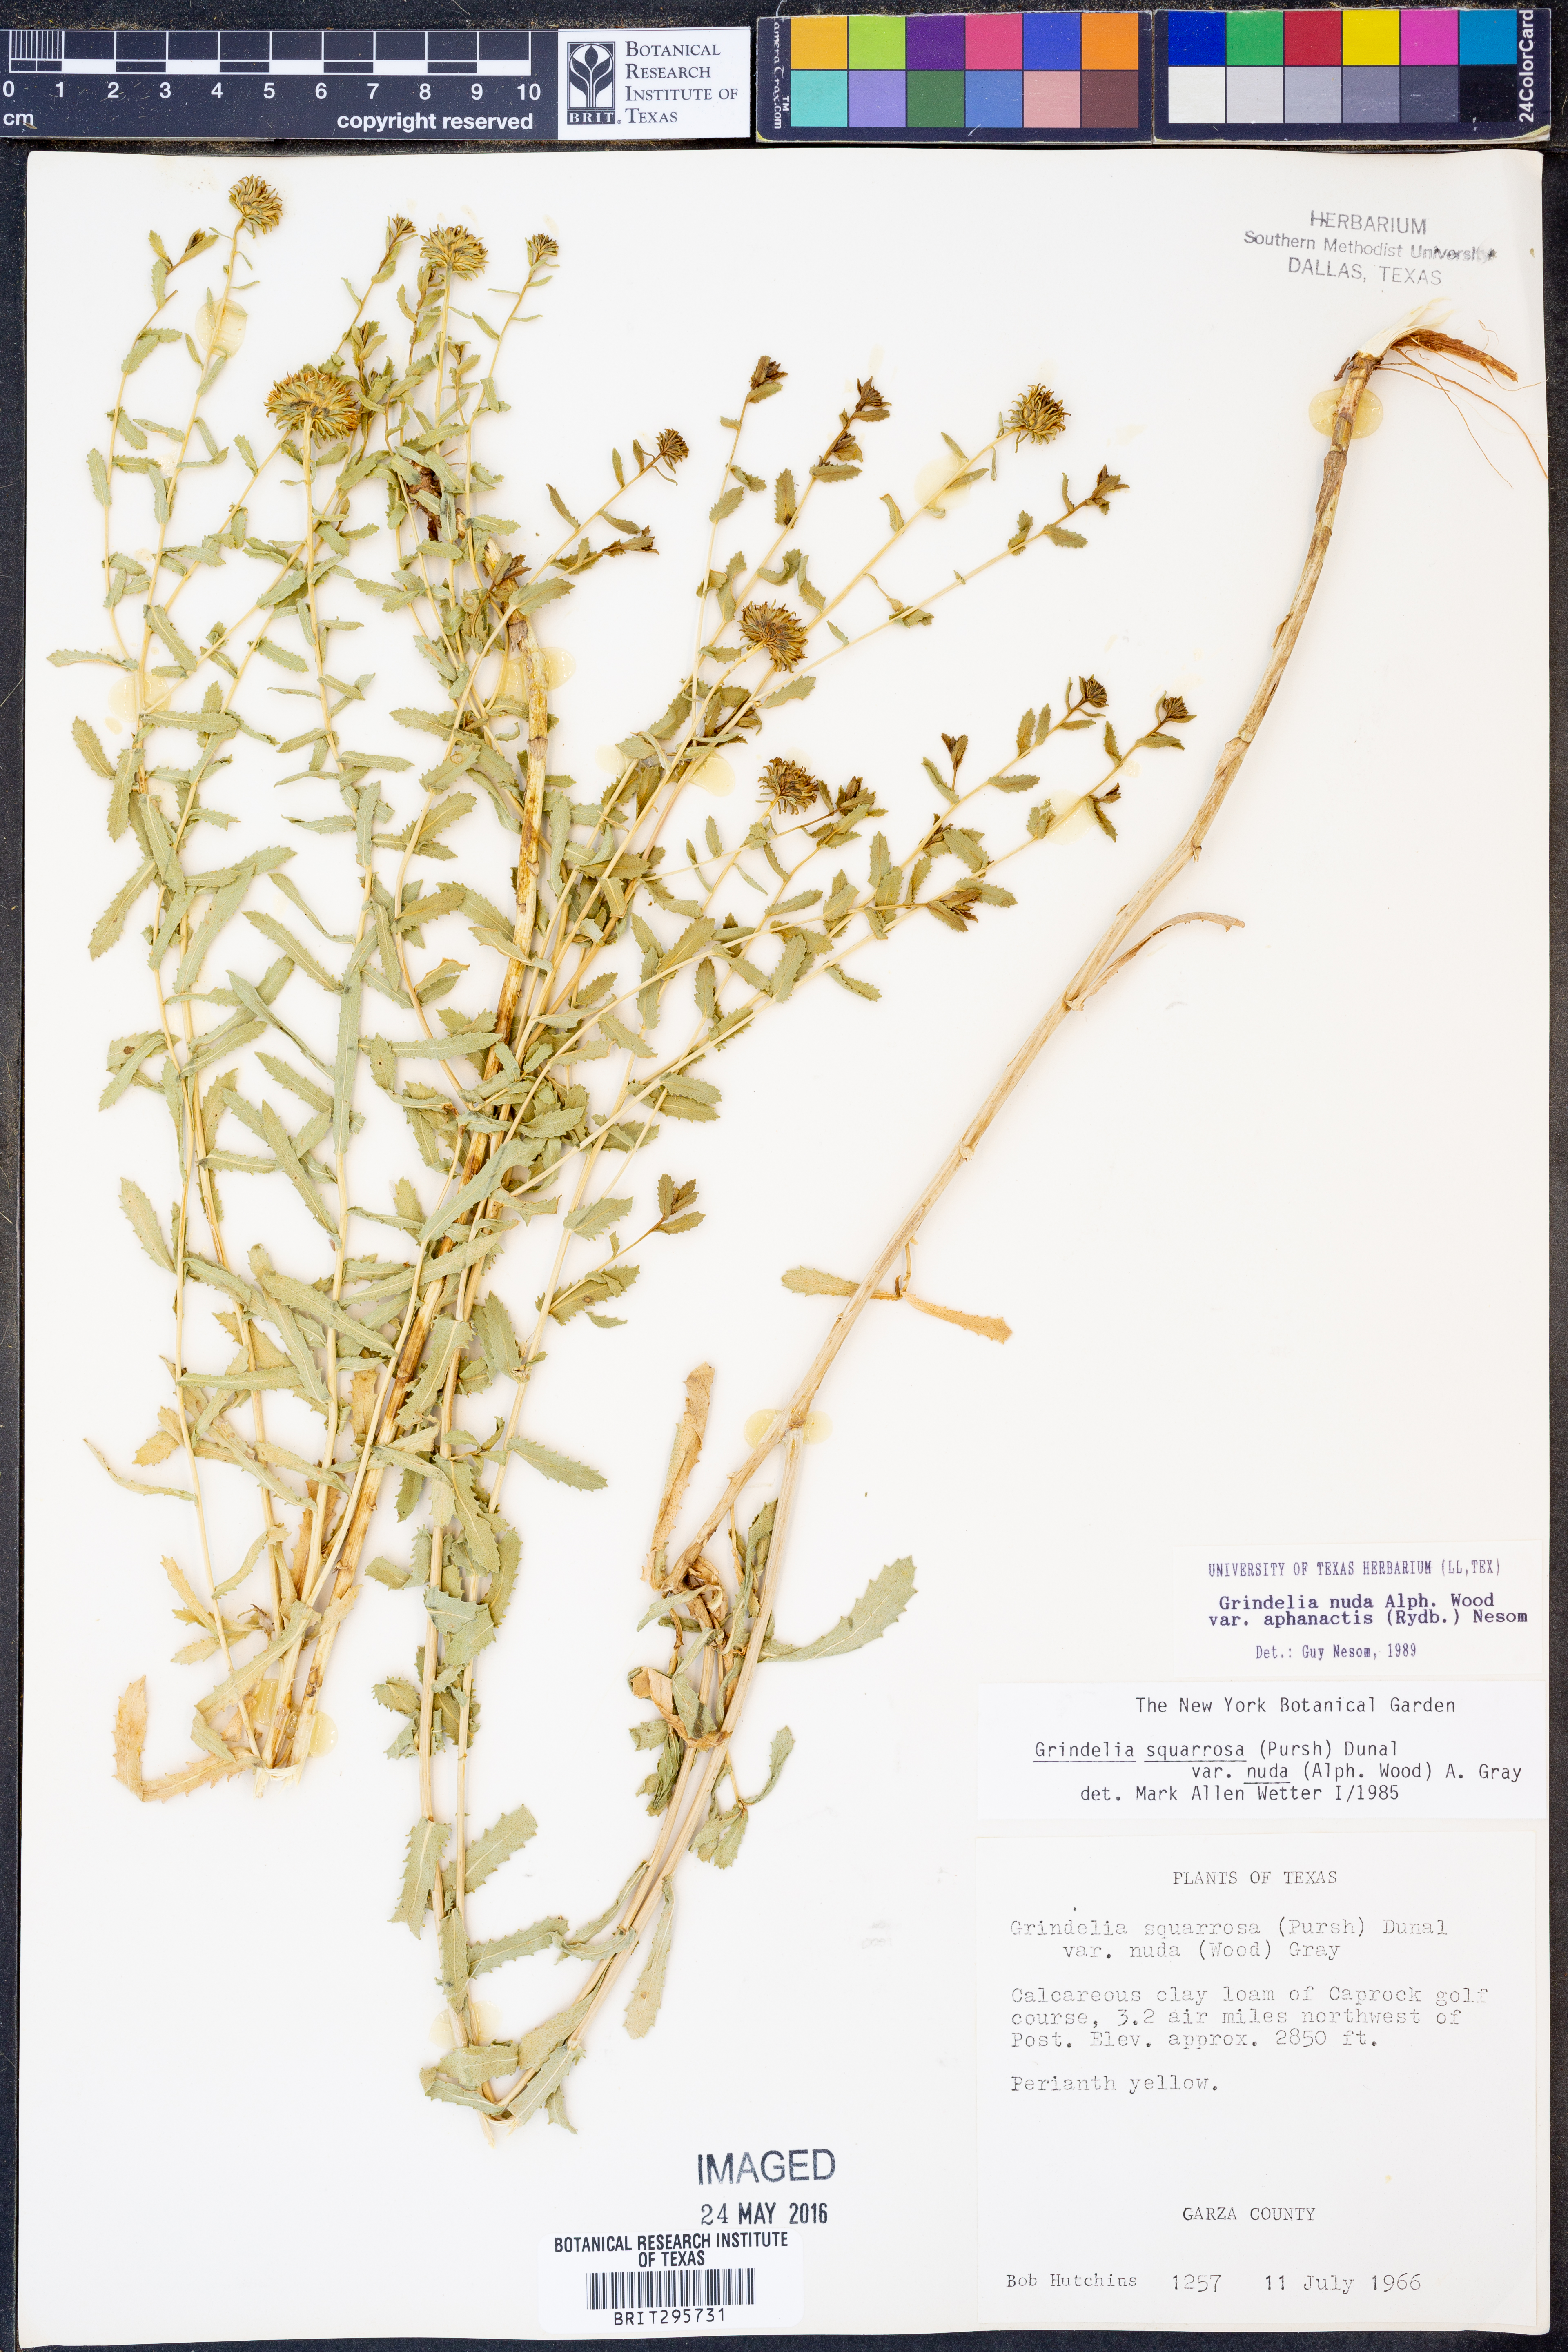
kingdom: Plantae
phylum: Tracheophyta
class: Magnoliopsida
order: Asterales
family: Asteraceae
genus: Grindelia
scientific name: Grindelia nuda
